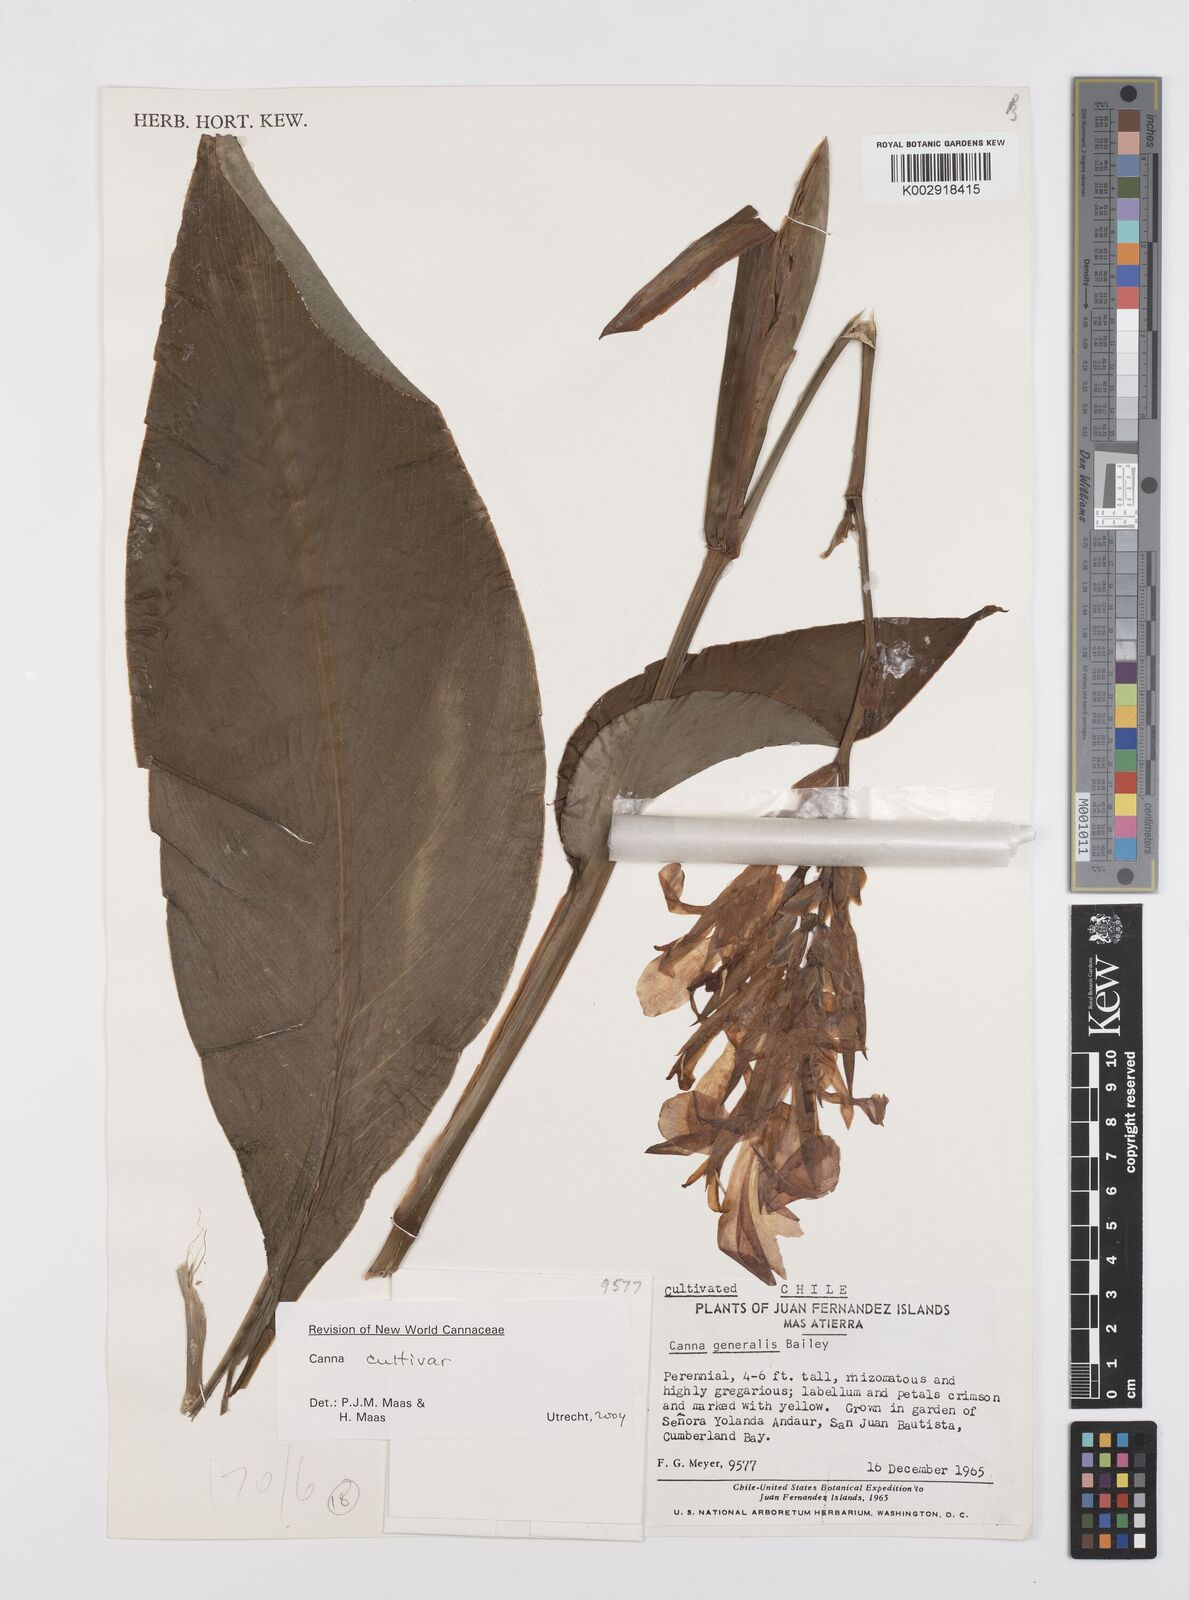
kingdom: Plantae
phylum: Tracheophyta
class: Liliopsida
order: Zingiberales
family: Cannaceae
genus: Canna
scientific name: Canna indica
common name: Indian shot
